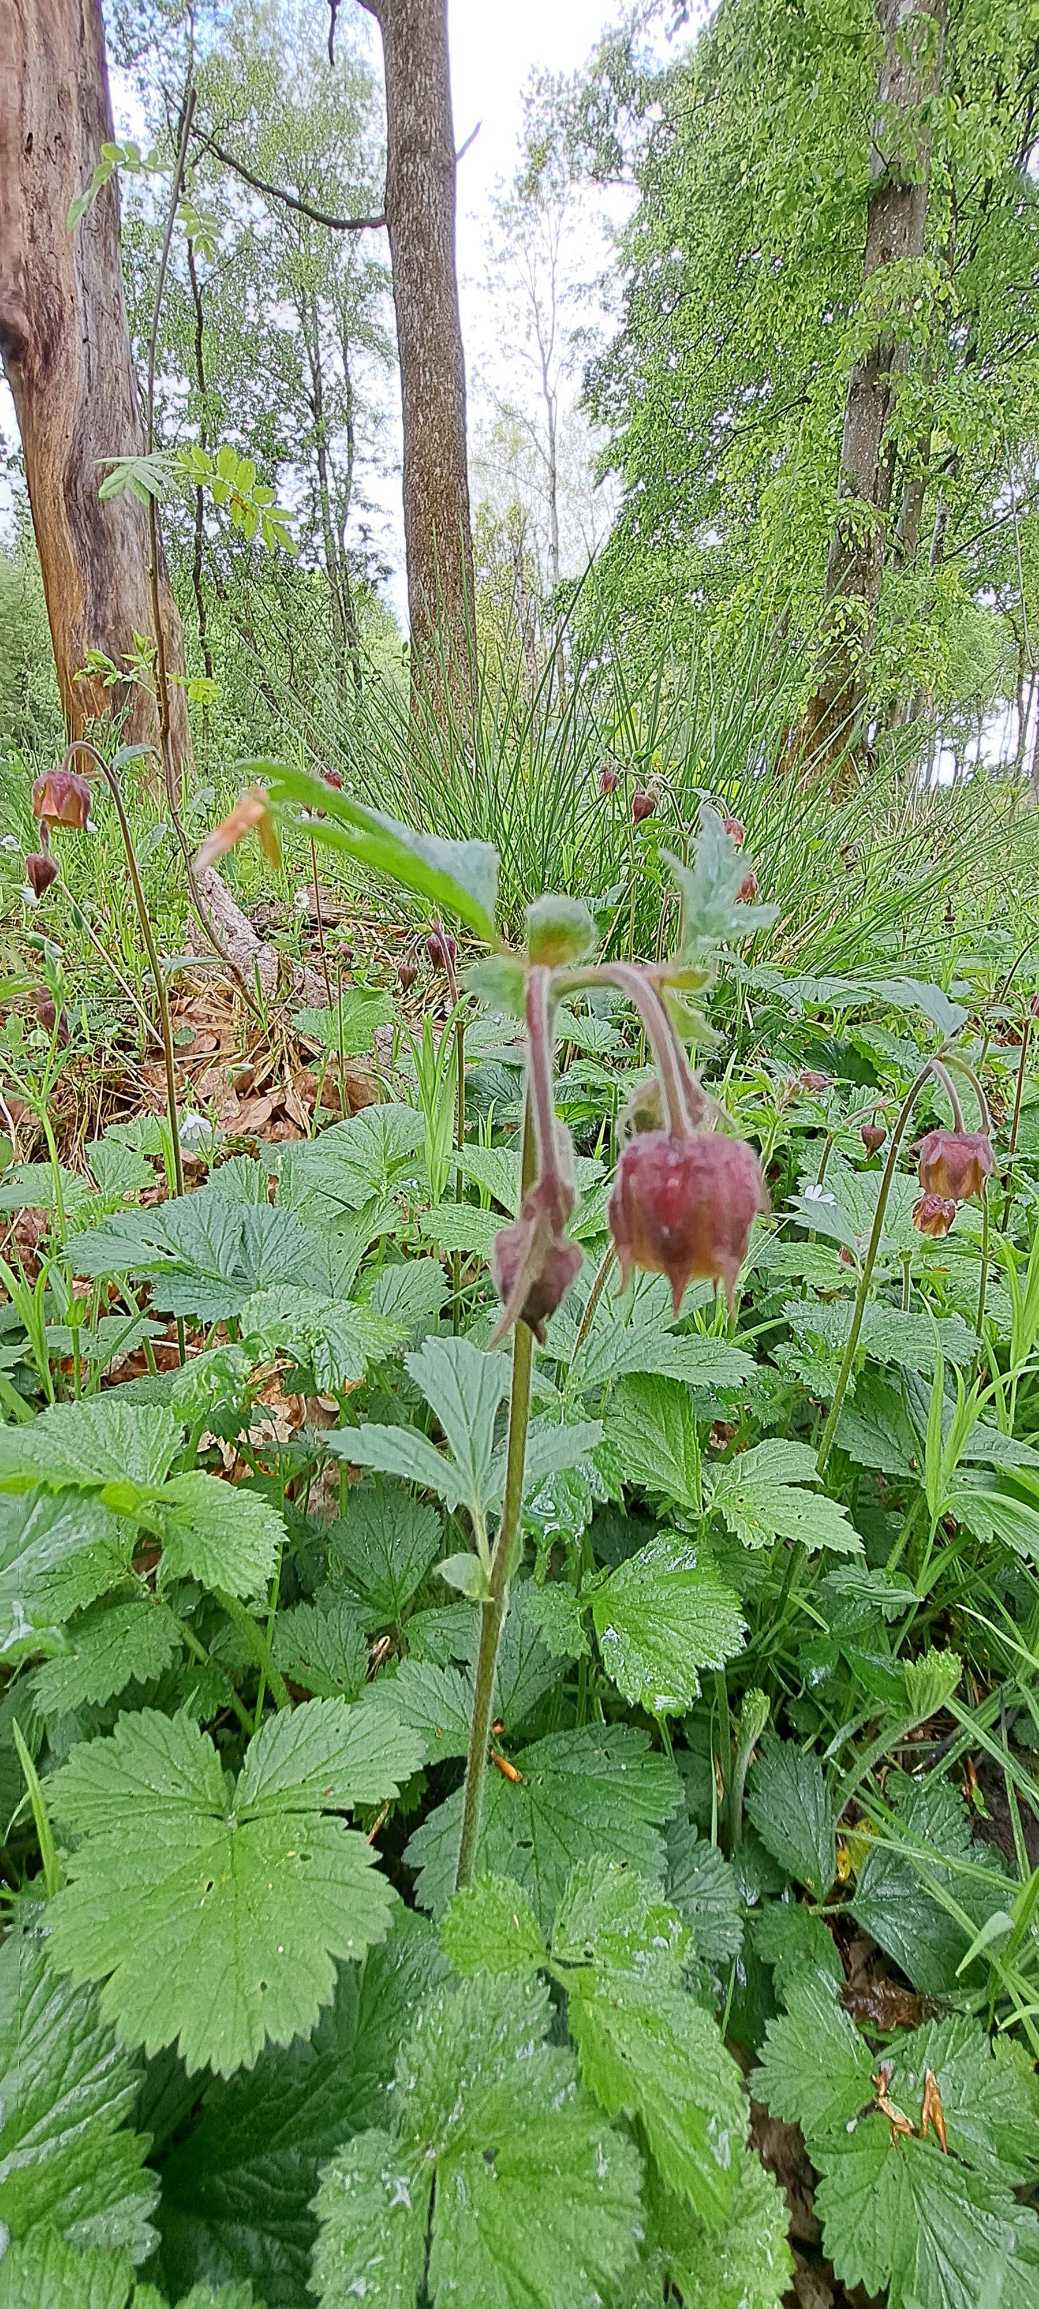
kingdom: Plantae
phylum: Tracheophyta
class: Magnoliopsida
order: Rosales
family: Rosaceae
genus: Geum
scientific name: Geum rivale
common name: Eng-nellikerod
